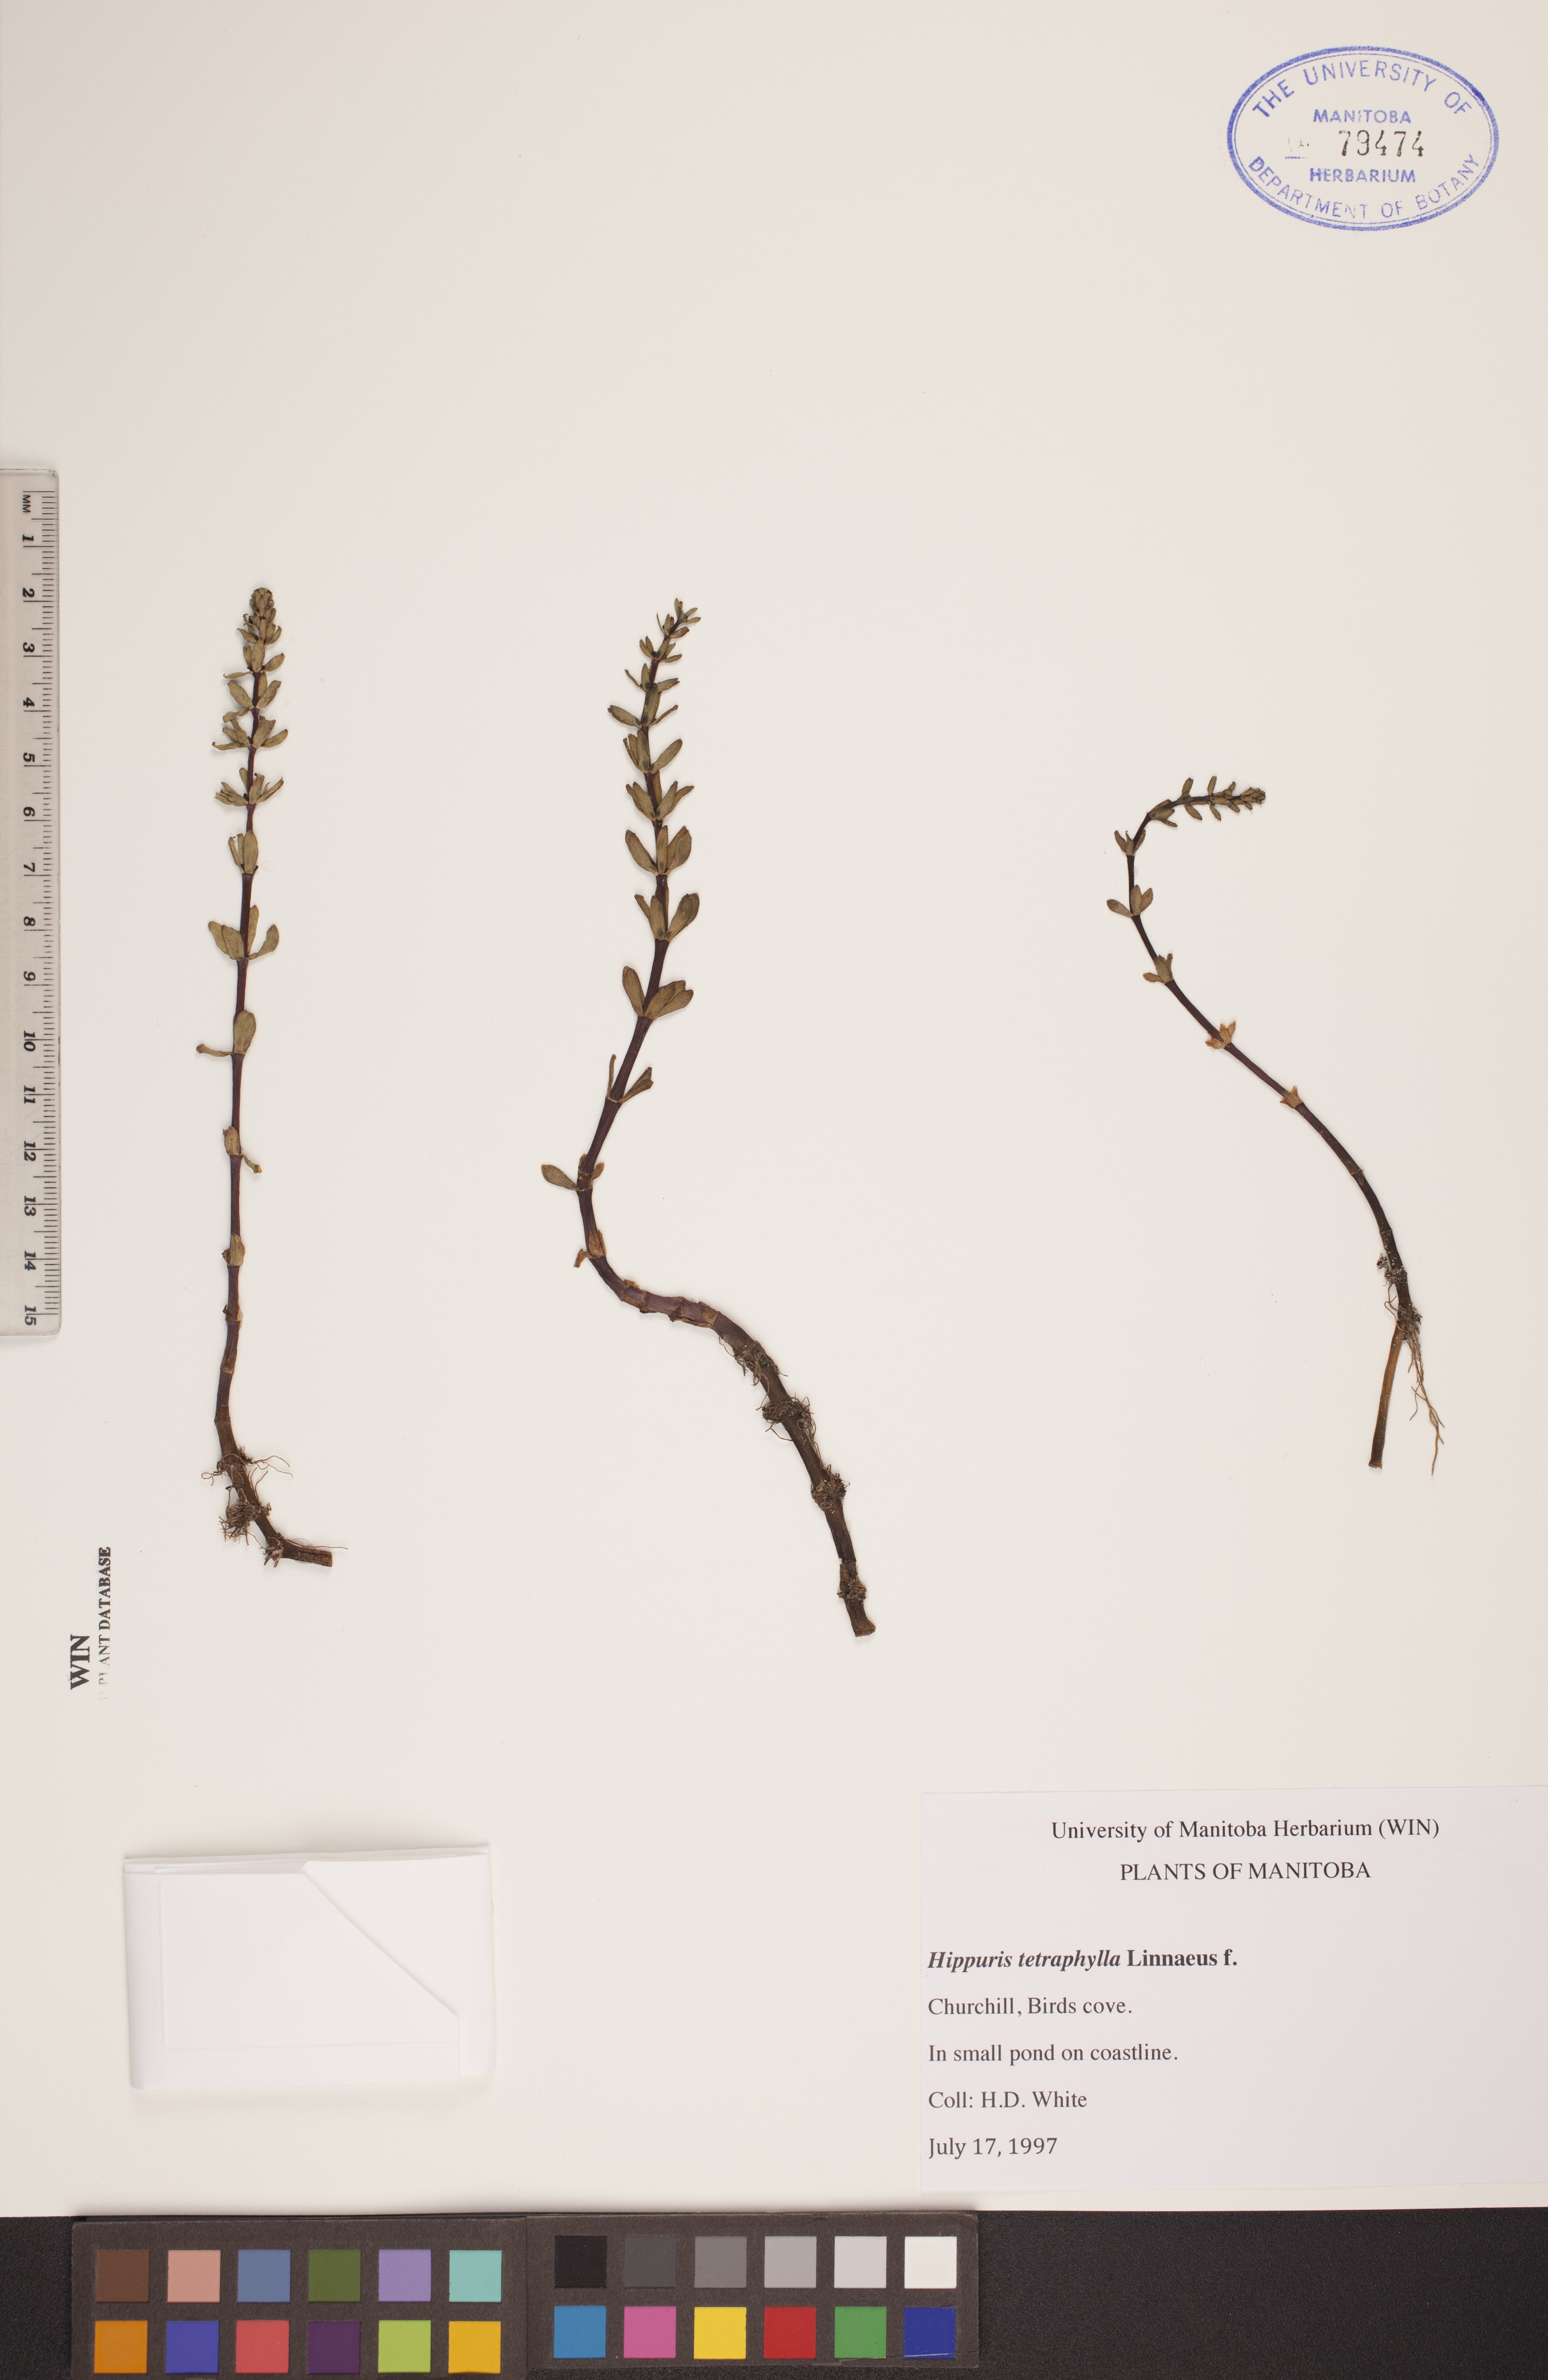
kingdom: Plantae
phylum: Tracheophyta
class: Magnoliopsida
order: Lamiales
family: Plantaginaceae
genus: Hippuris
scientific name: Hippuris tetraphylla
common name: Four-leaved mare's-tail
